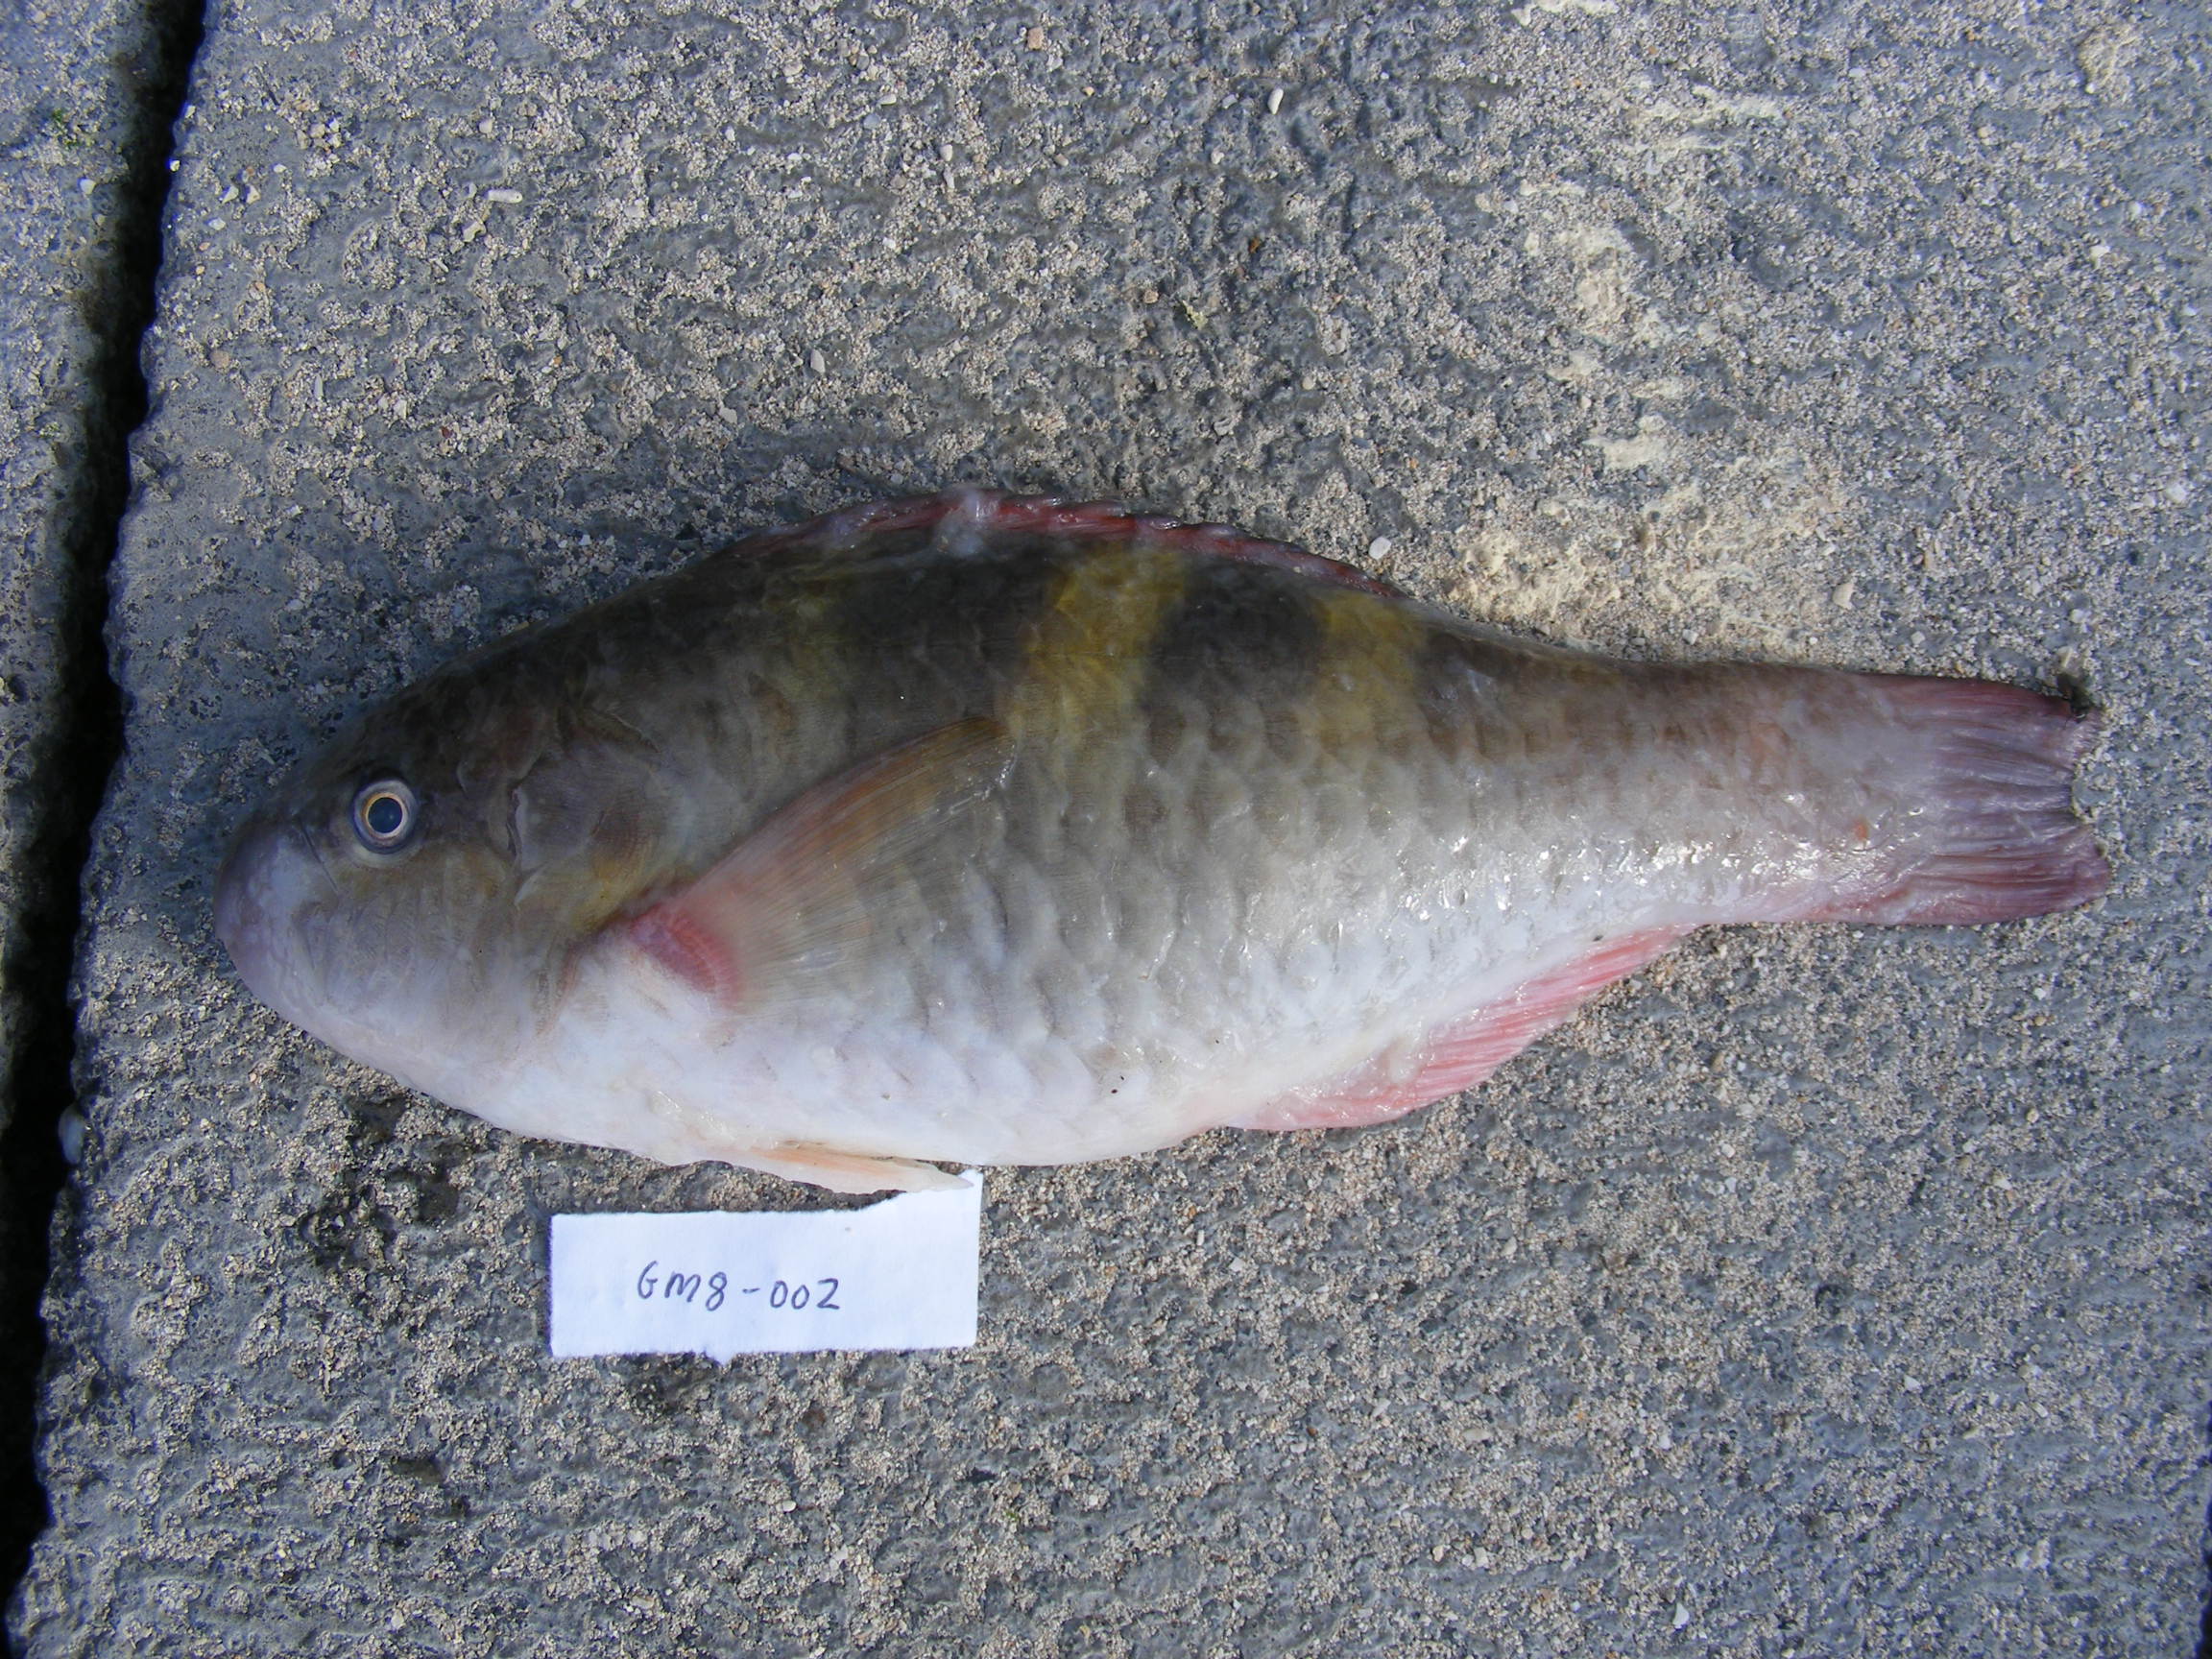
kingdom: Animalia
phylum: Chordata
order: Perciformes
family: Scaridae
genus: Scarus
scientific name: Scarus scaber
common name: Dusky-capped parrotfish
